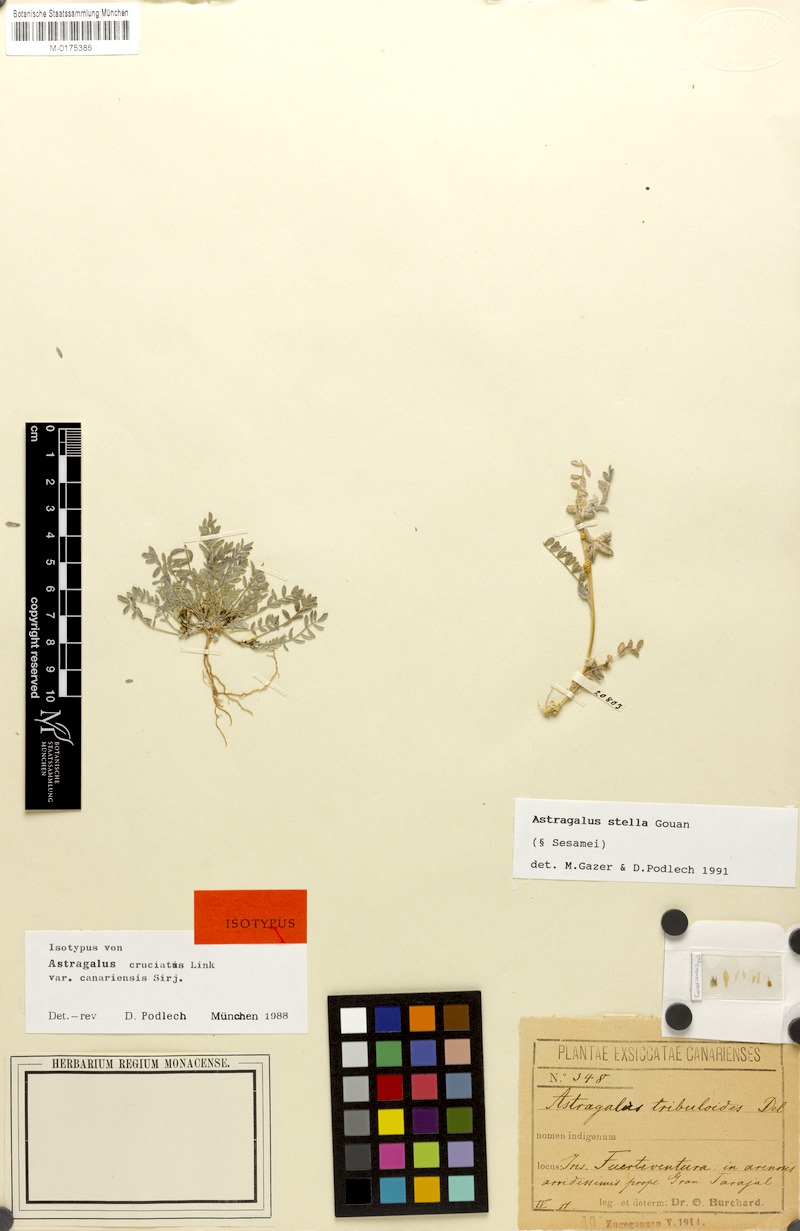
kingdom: Plantae
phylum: Tracheophyta
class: Magnoliopsida
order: Fabales
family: Fabaceae
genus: Astragalus
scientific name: Astragalus stella
